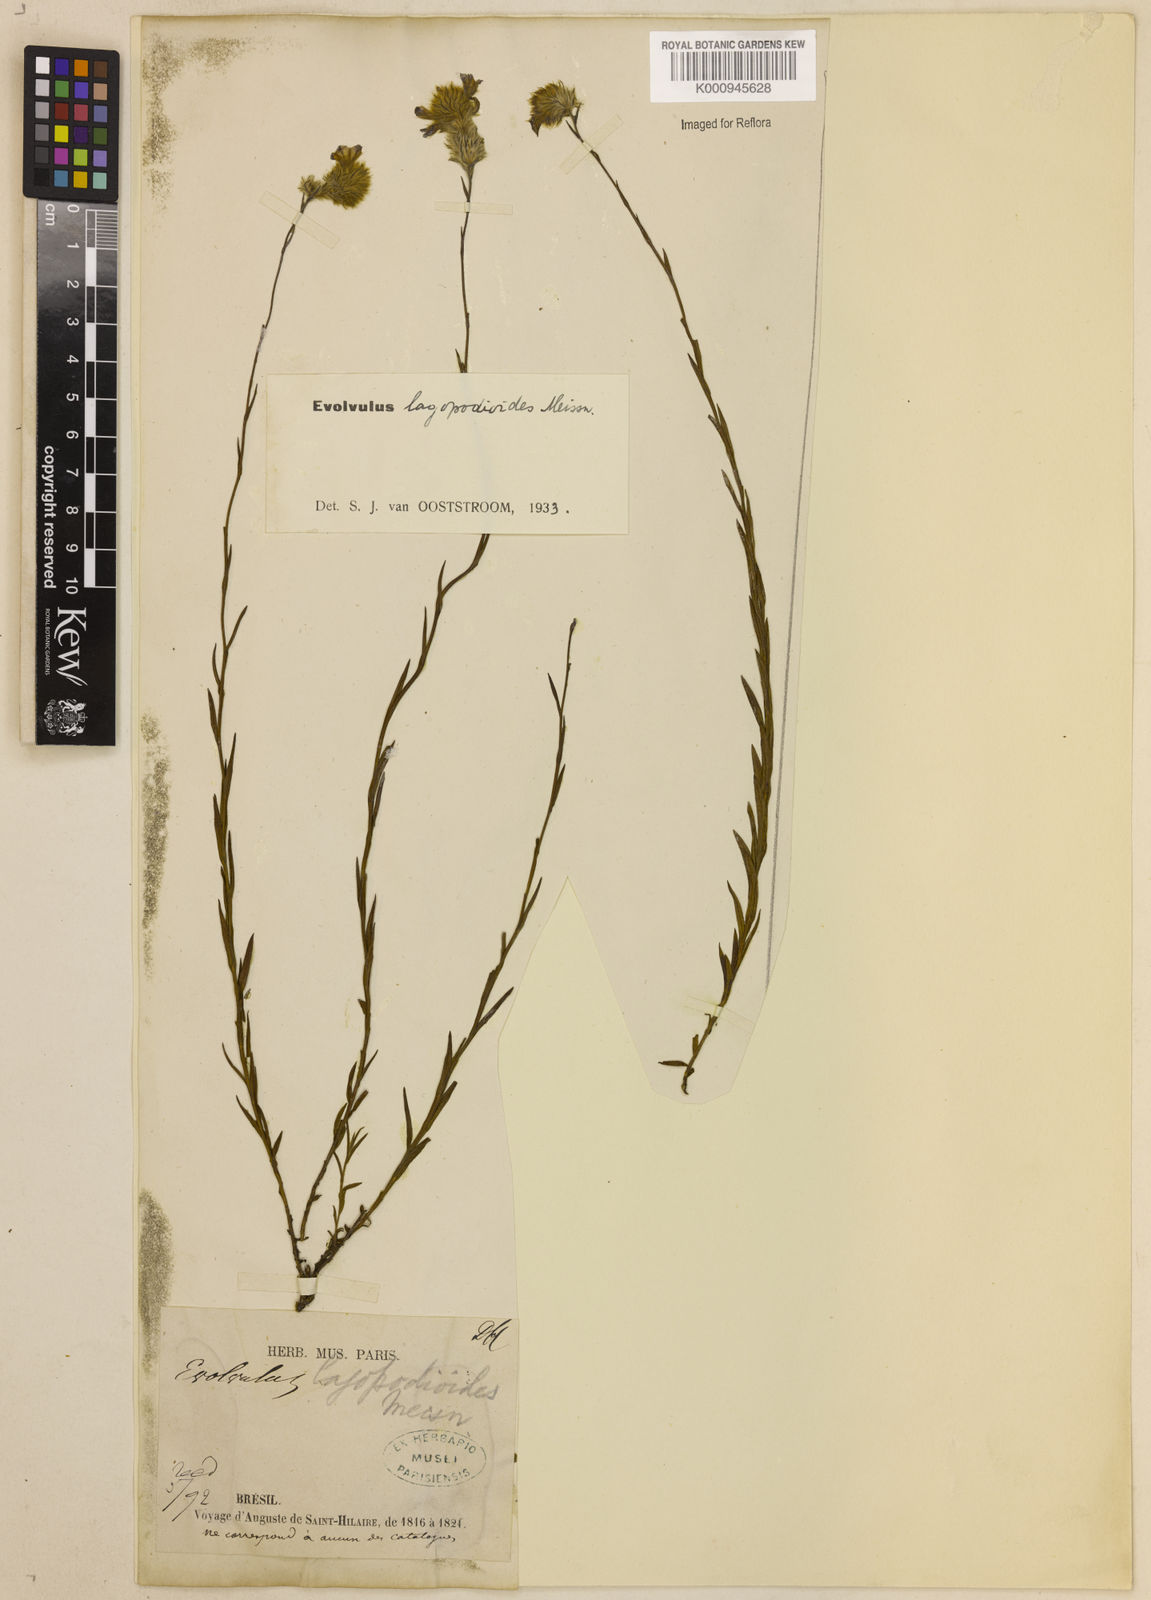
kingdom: Plantae
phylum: Tracheophyta
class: Magnoliopsida
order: Solanales
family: Convolvulaceae
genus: Evolvulus
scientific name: Evolvulus lagopodioides
